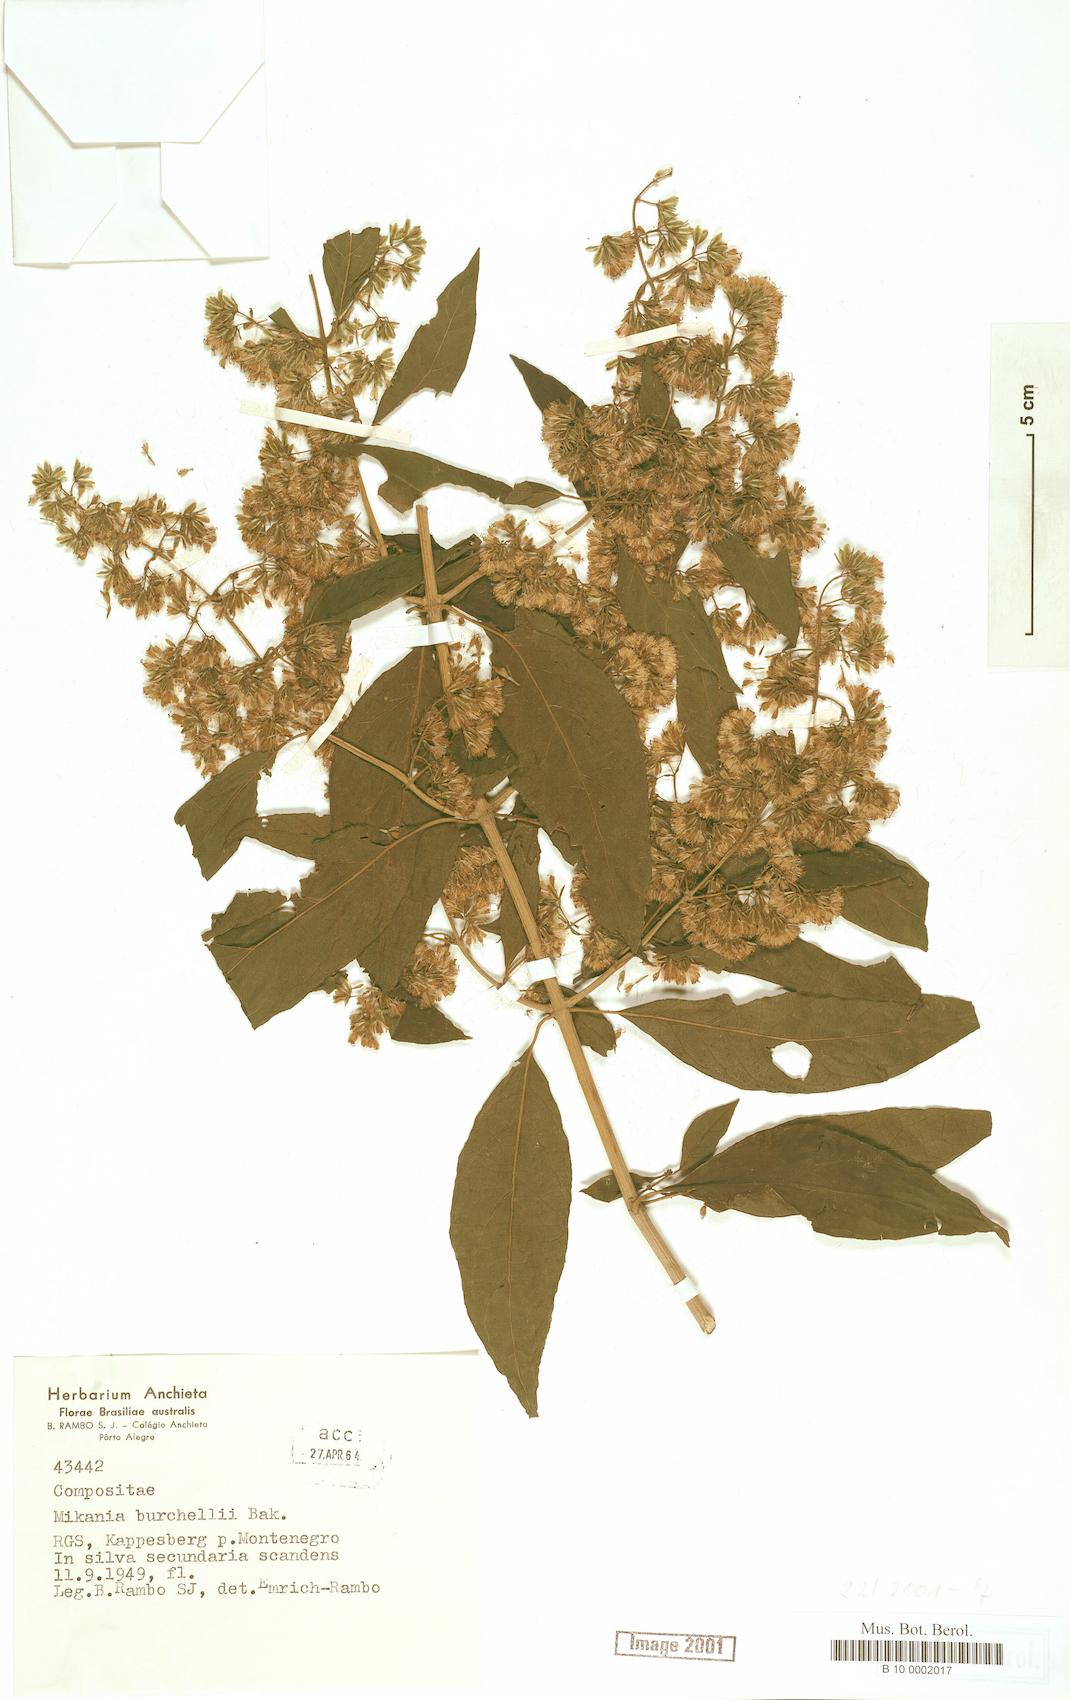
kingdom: Plantae
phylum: Tracheophyta
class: Magnoliopsida
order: Asterales
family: Asteraceae
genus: Mikania
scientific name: Mikania burchellii
